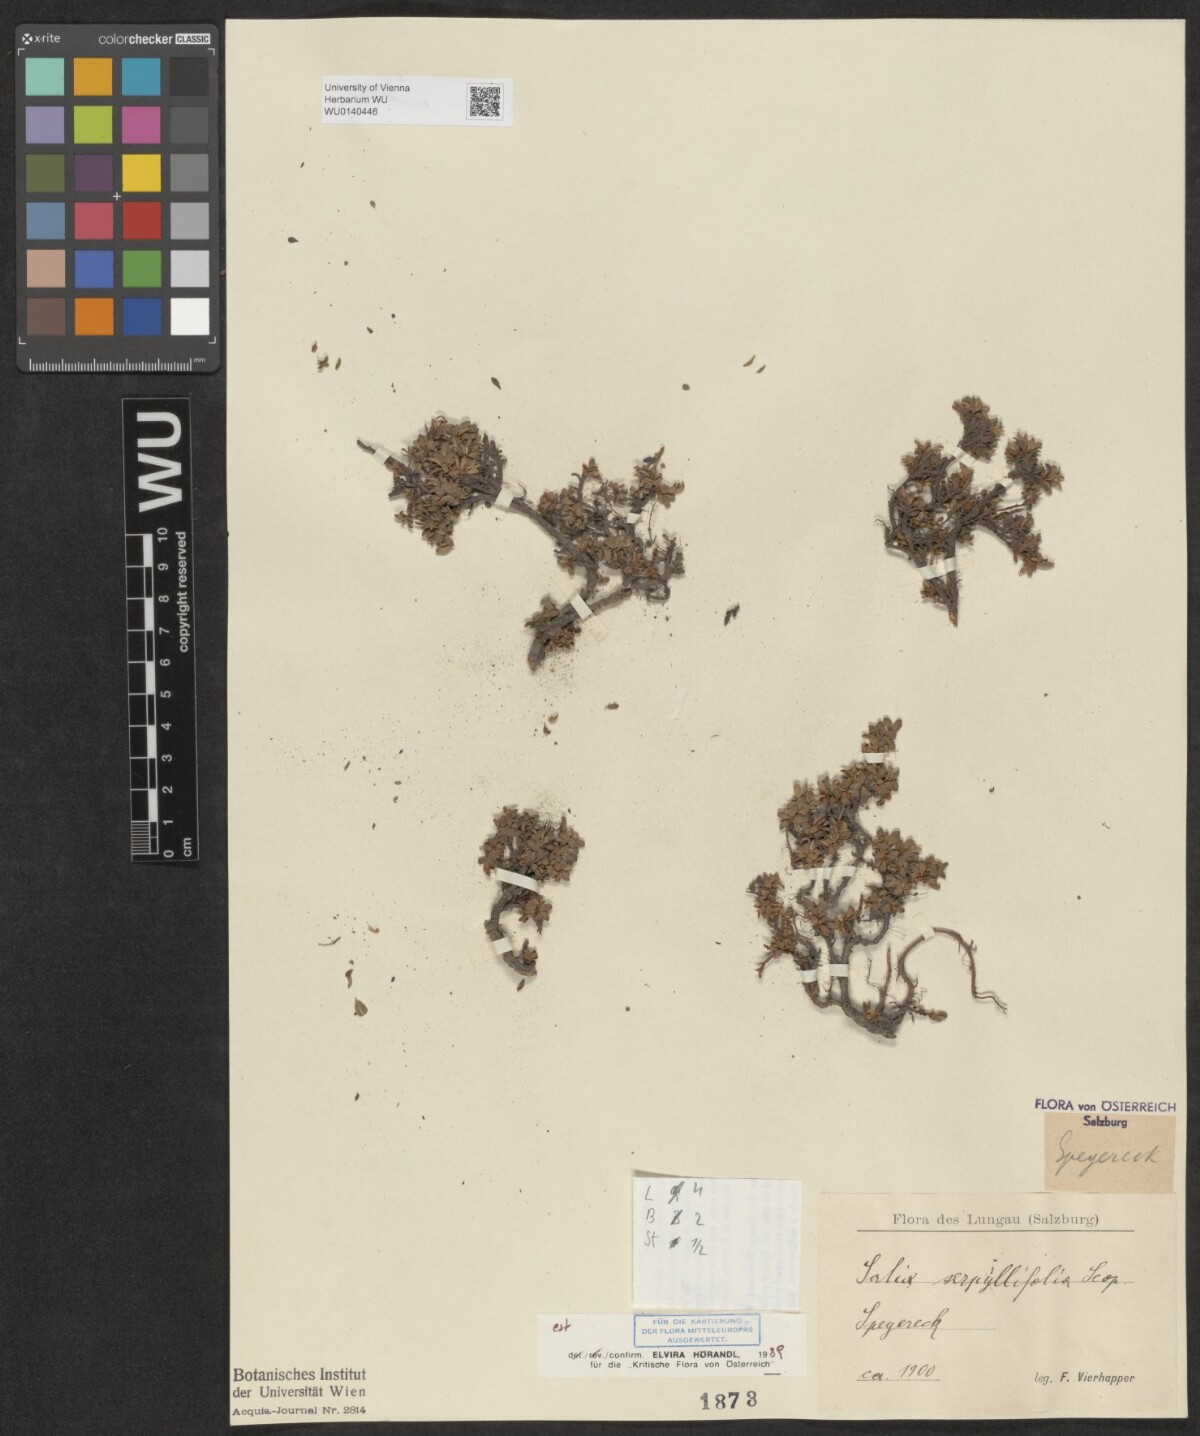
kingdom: Plantae
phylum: Tracheophyta
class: Magnoliopsida
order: Malpighiales
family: Salicaceae
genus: Salix
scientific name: Salix serpillifolia
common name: Thyme-leaf willow
